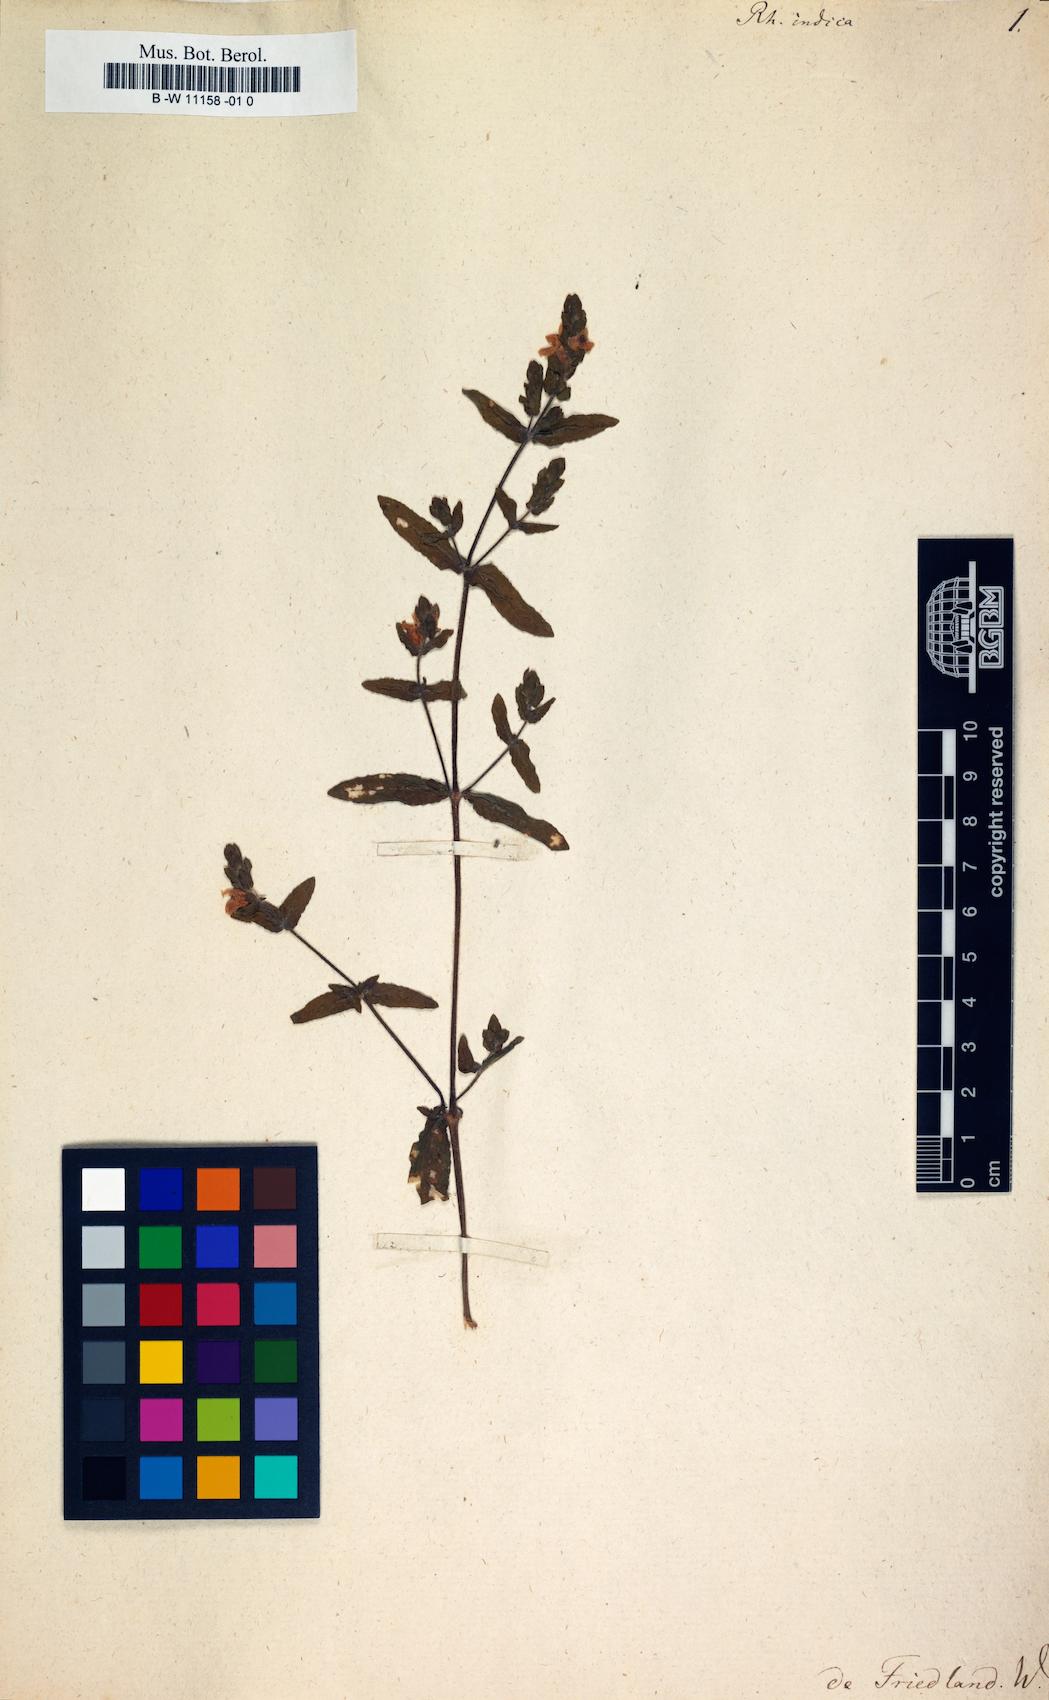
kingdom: Plantae
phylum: Tracheophyta
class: Magnoliopsida
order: Lamiales
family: Orobanchaceae
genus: Centranthera
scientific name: Centranthera indica
